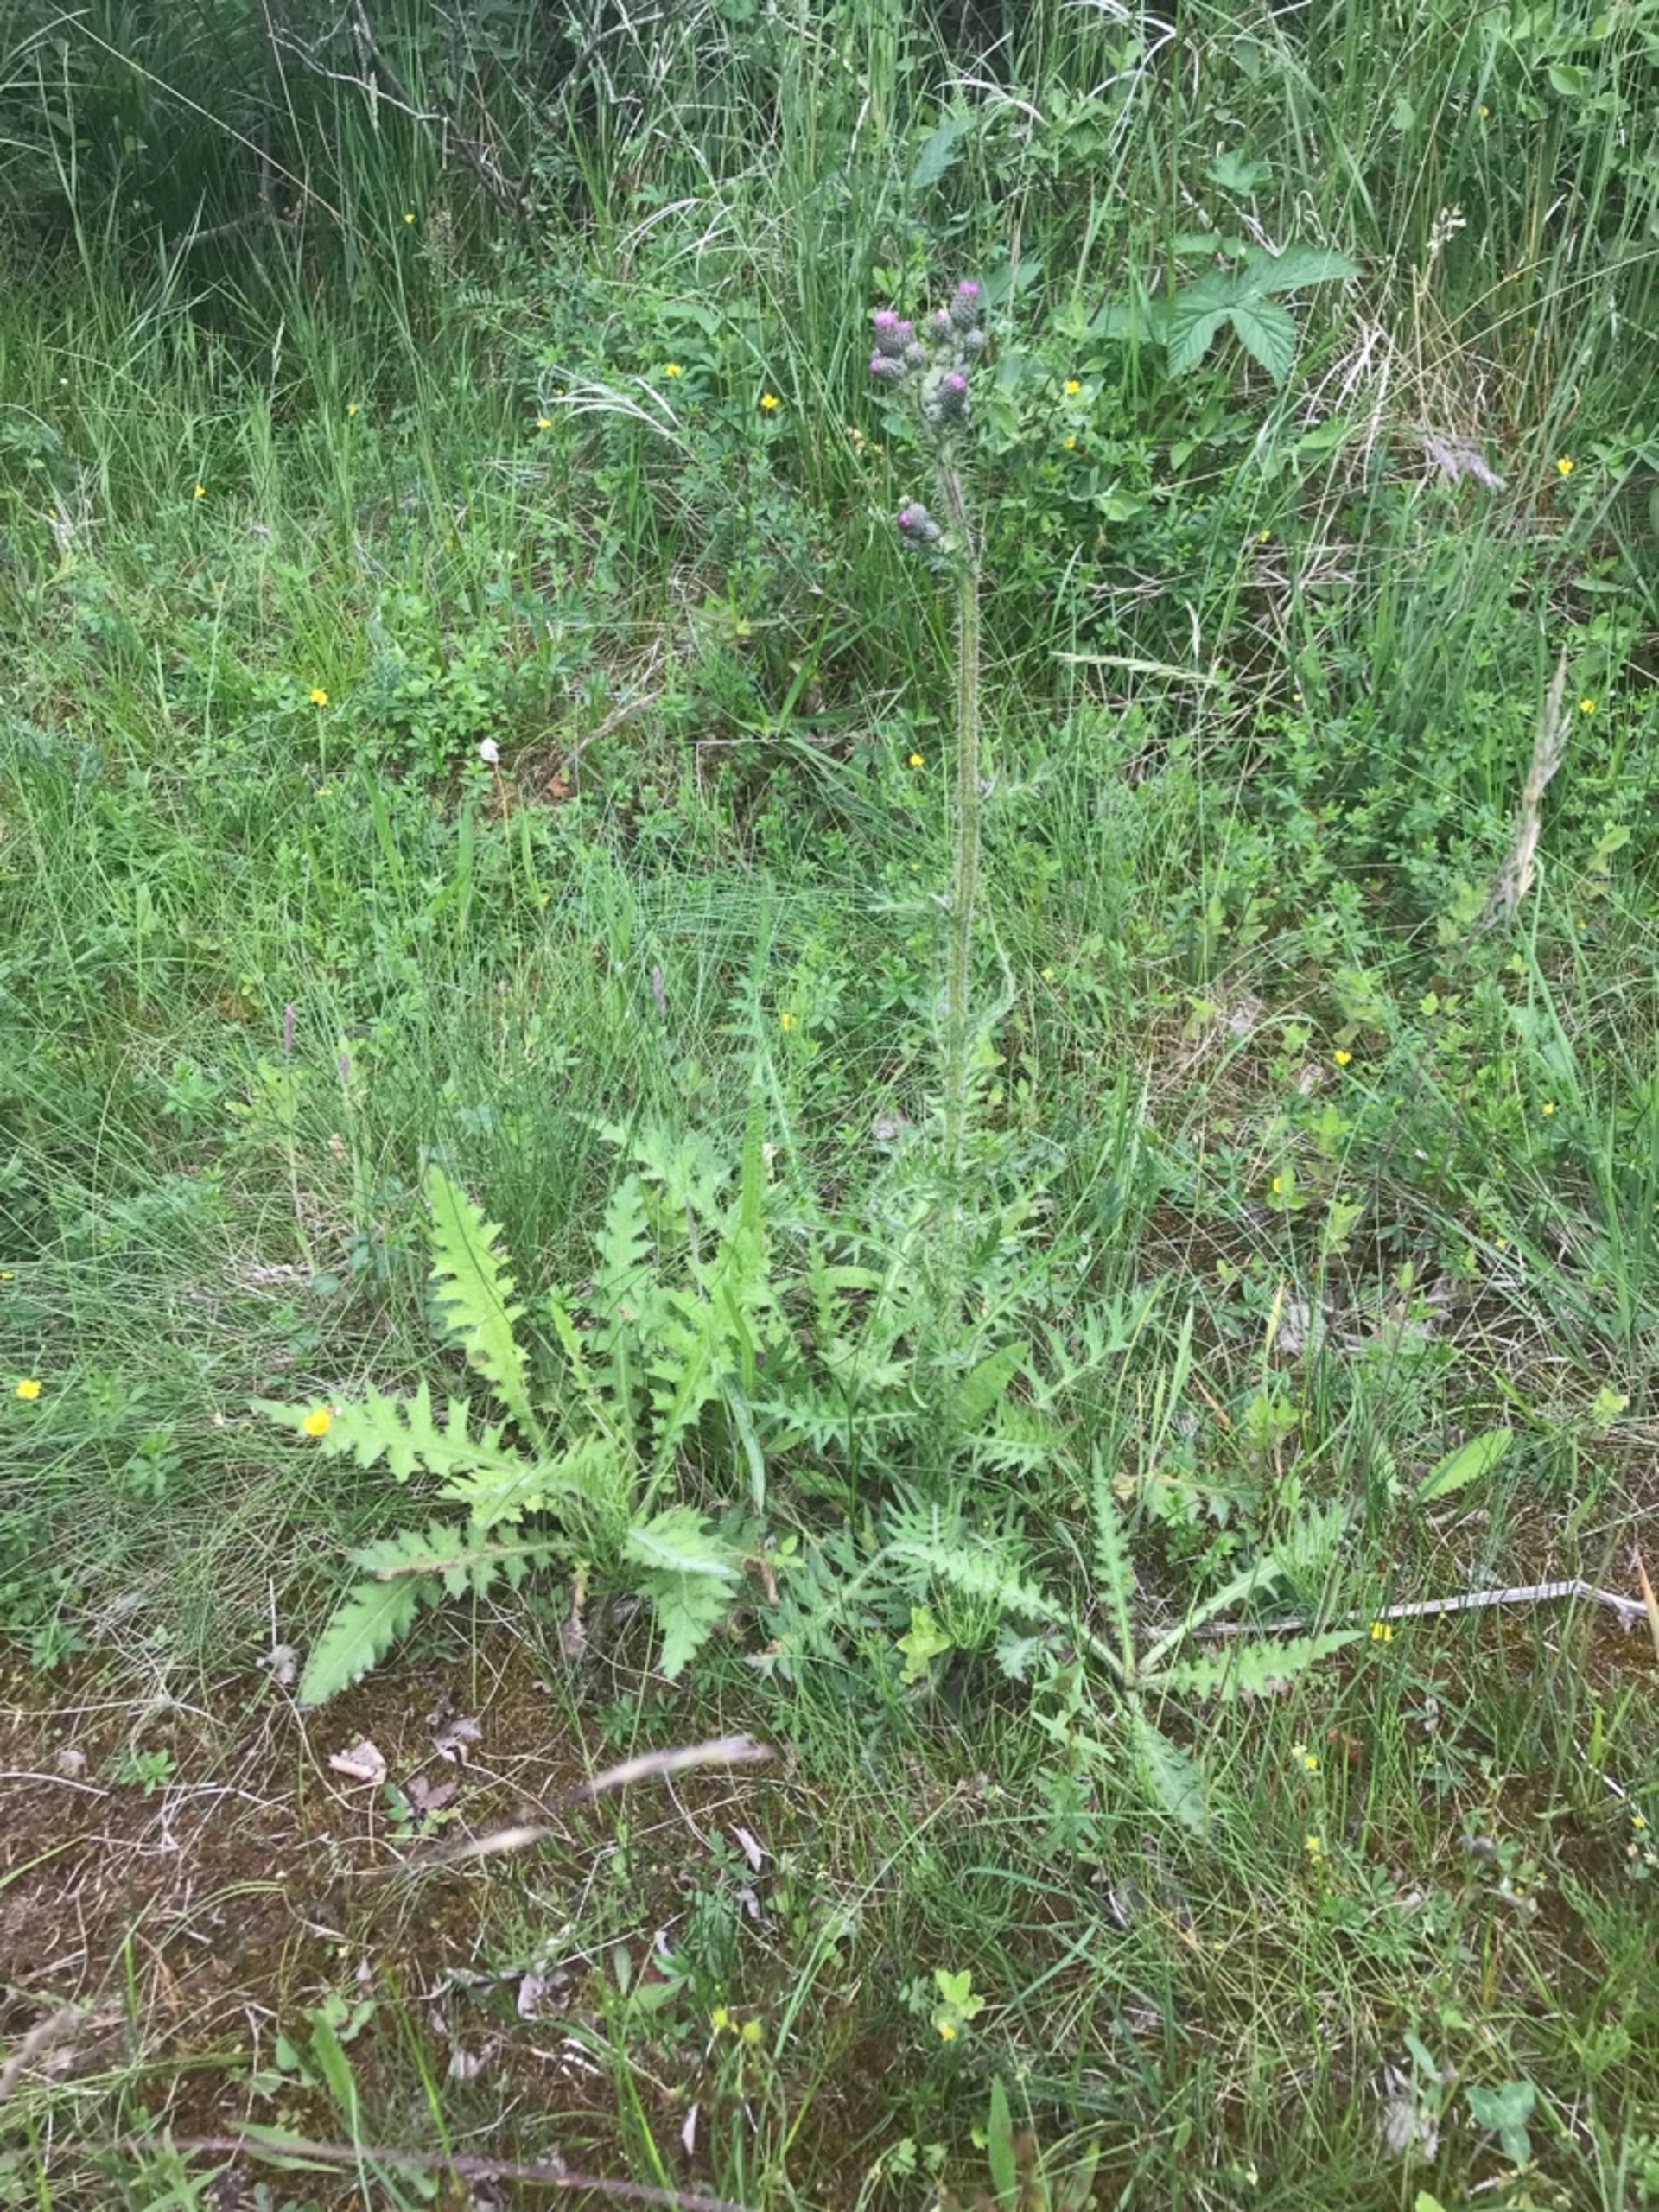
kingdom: Plantae
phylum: Tracheophyta
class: Magnoliopsida
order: Asterales
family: Asteraceae
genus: Cirsium
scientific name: Cirsium palustre
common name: Kær-tidsel
